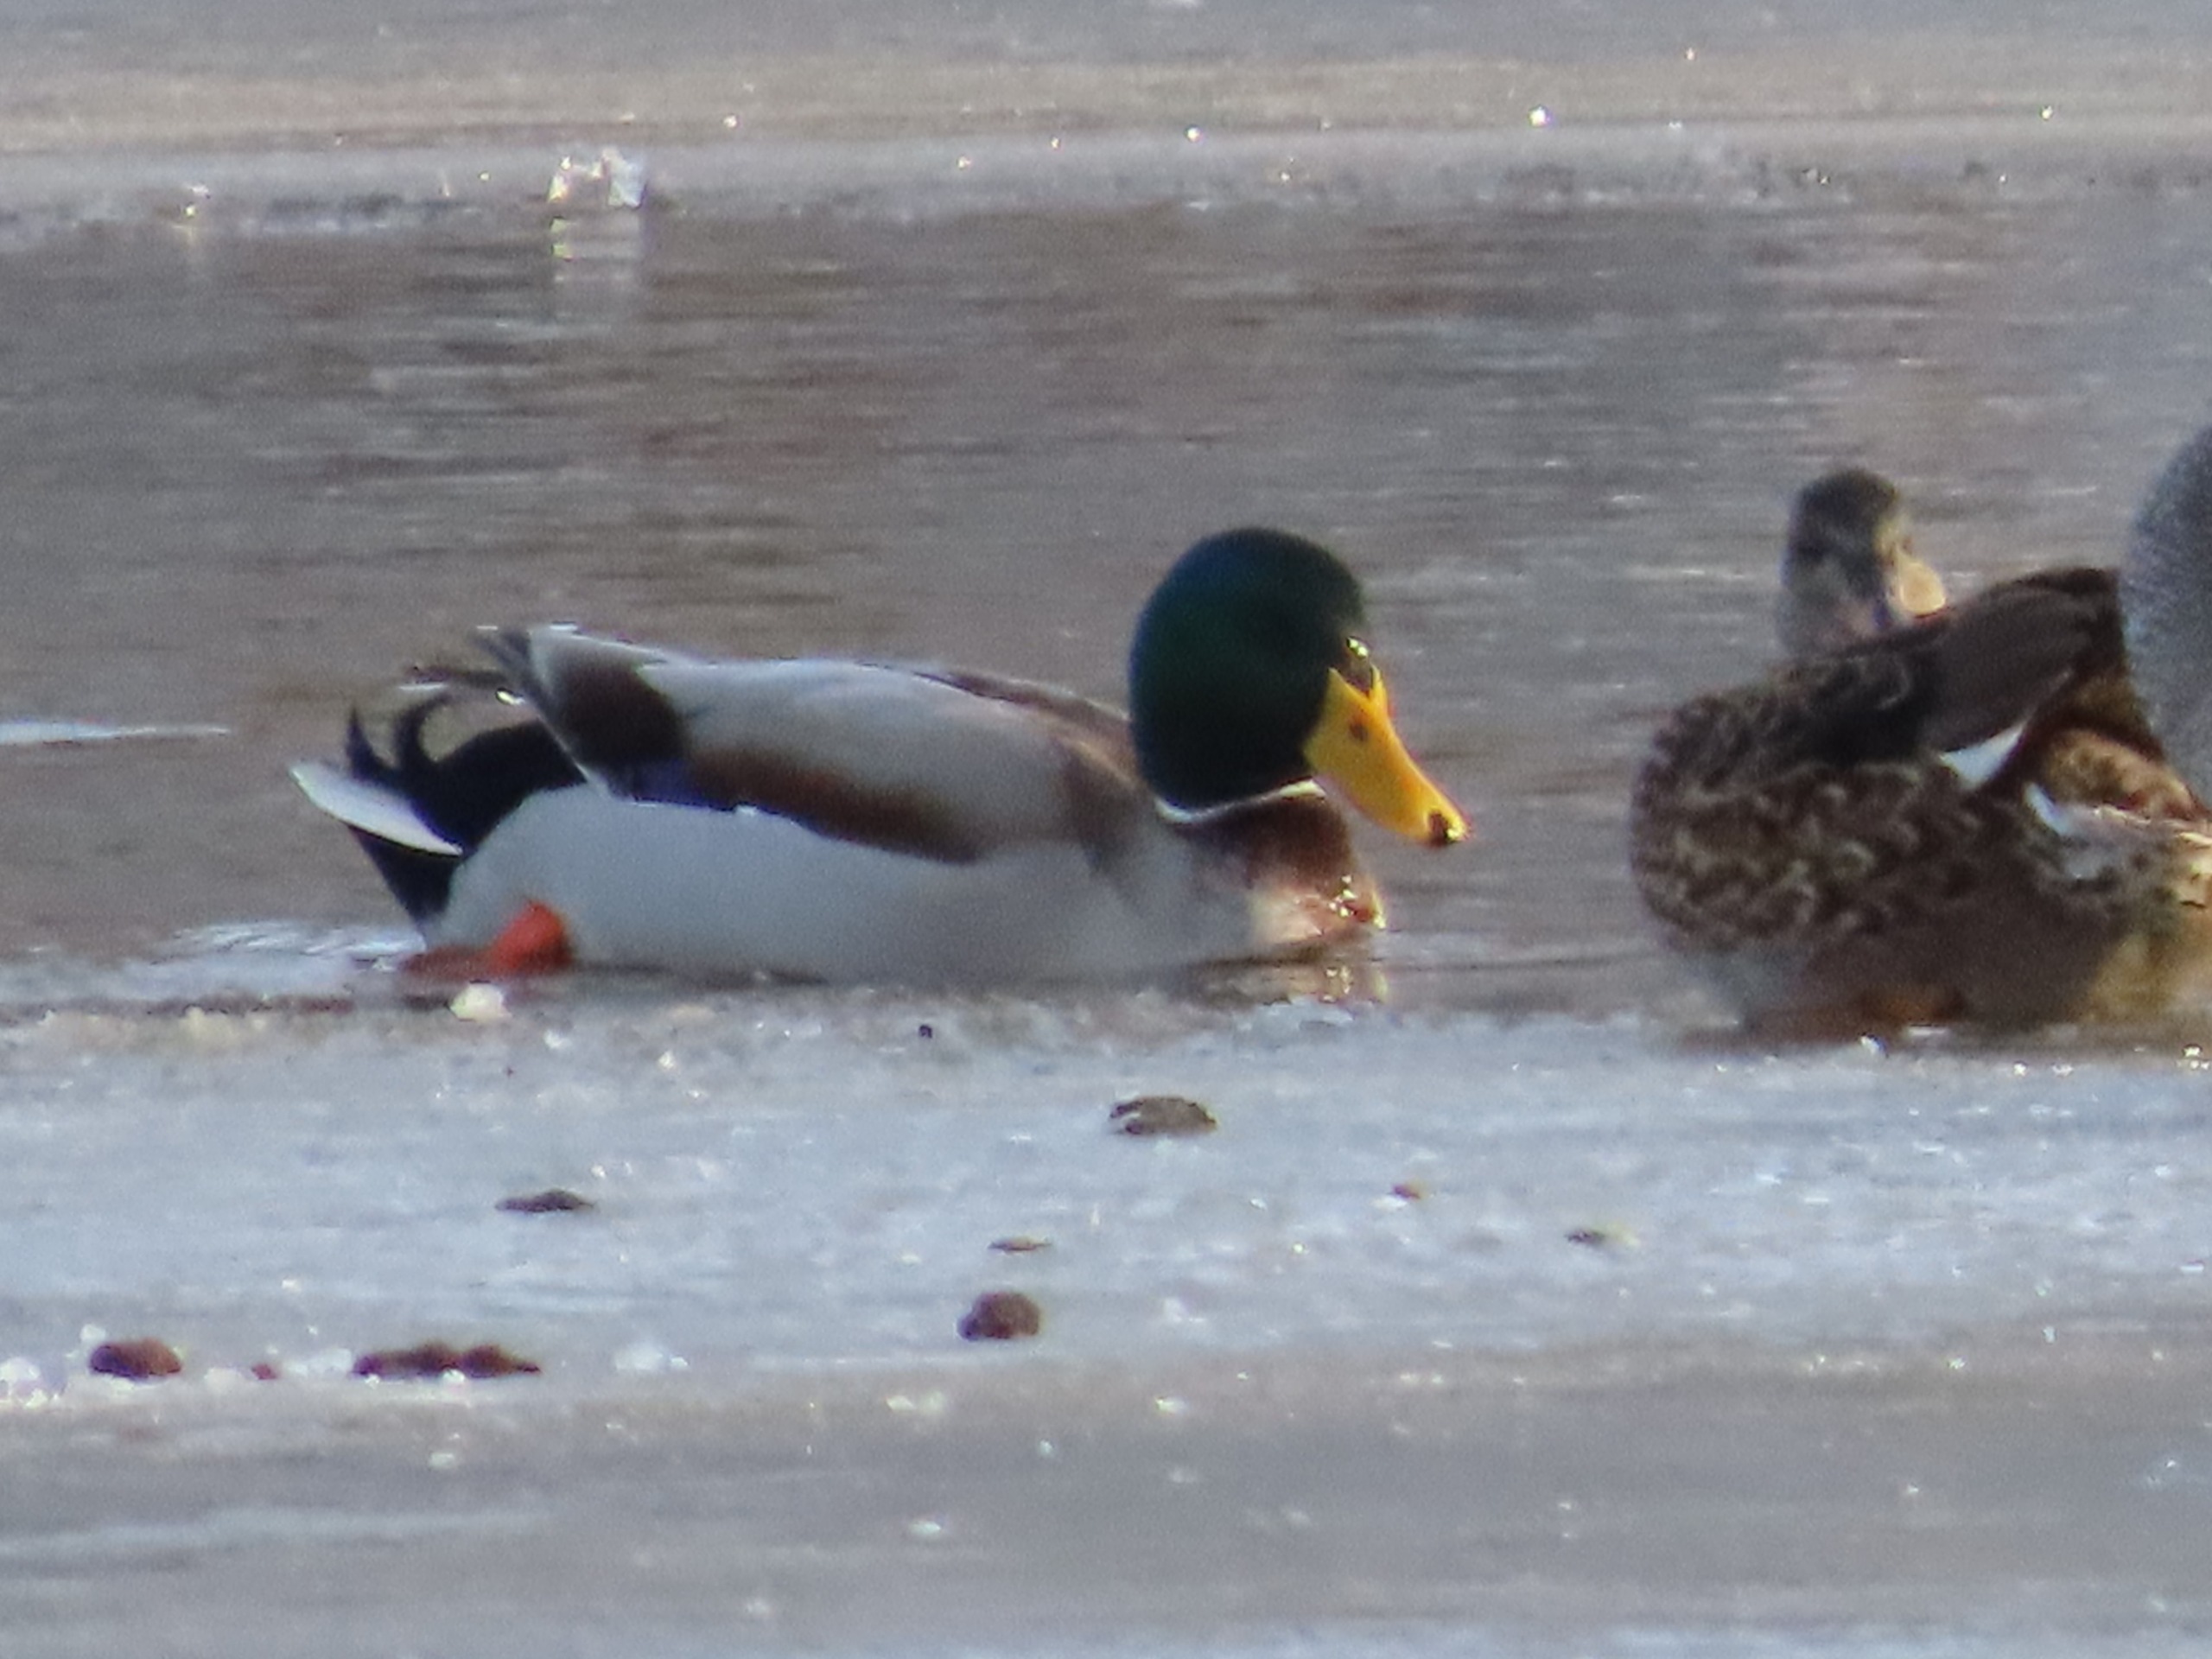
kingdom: Animalia
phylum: Chordata
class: Aves
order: Anseriformes
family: Anatidae
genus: Anas
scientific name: Anas platyrhynchos
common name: Gråand
